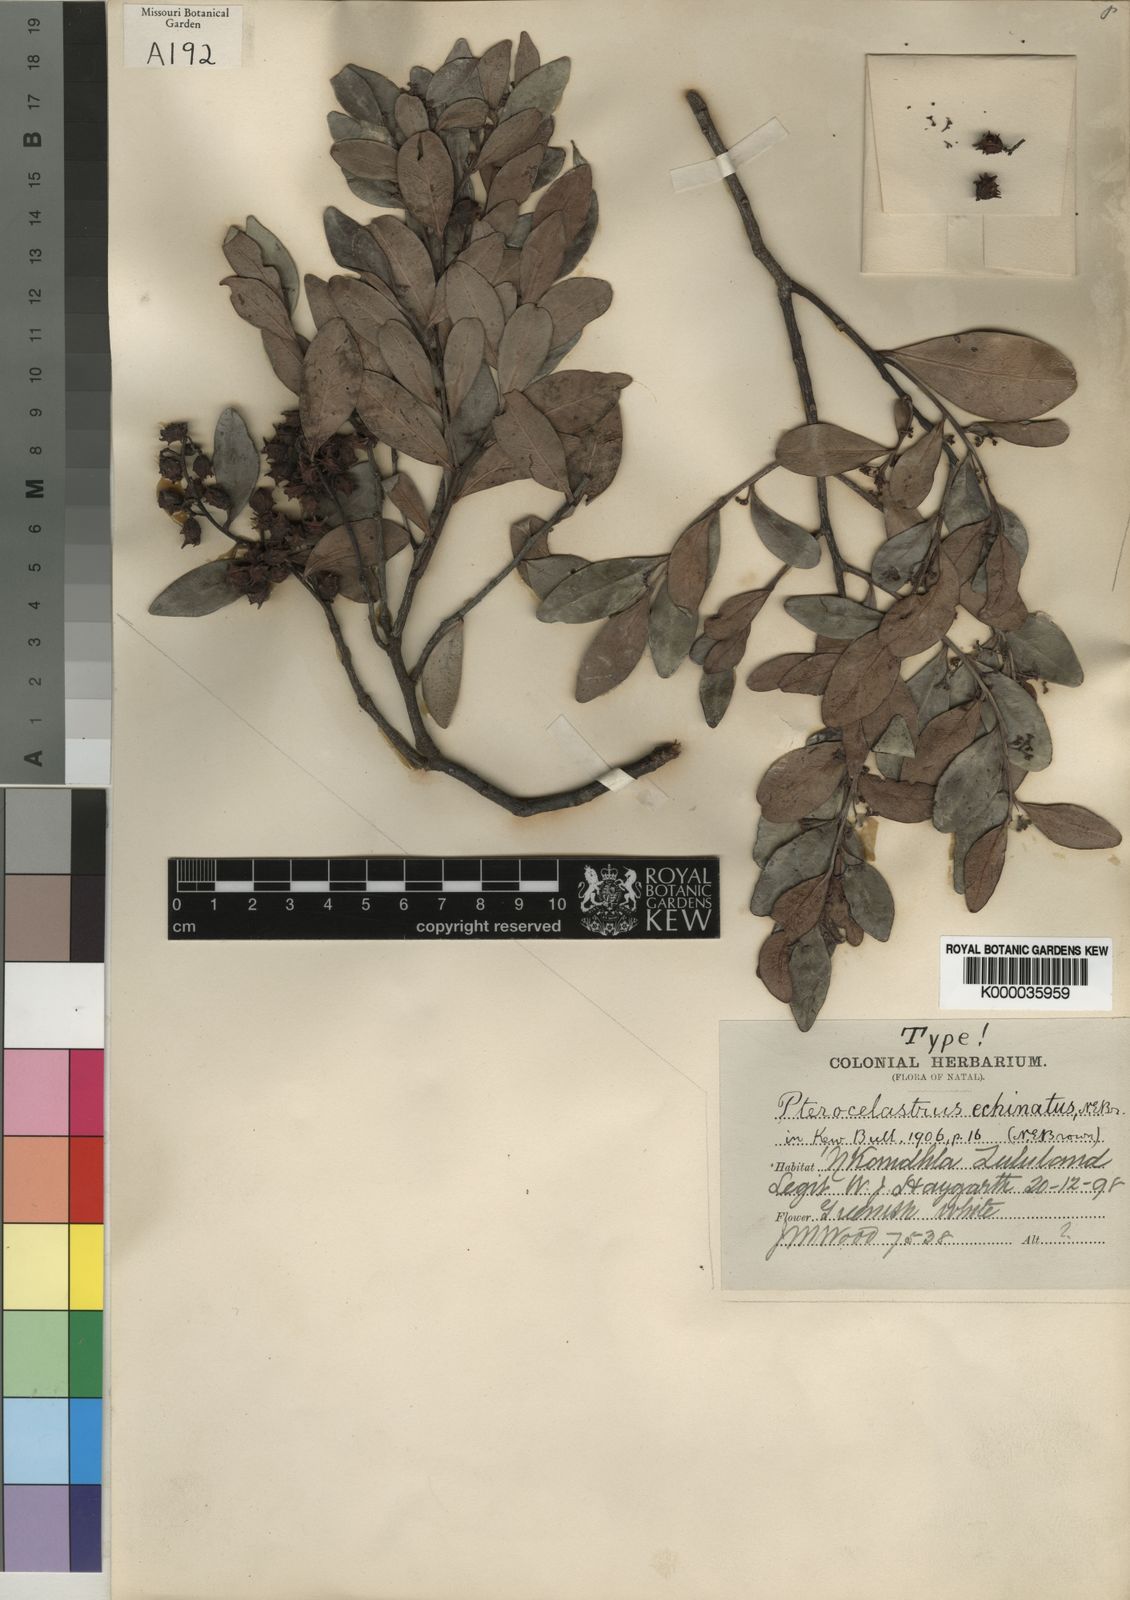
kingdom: Plantae
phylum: Tracheophyta
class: Magnoliopsida
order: Celastrales
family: Celastraceae
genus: Pterocelastrus
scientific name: Pterocelastrus echinatus
